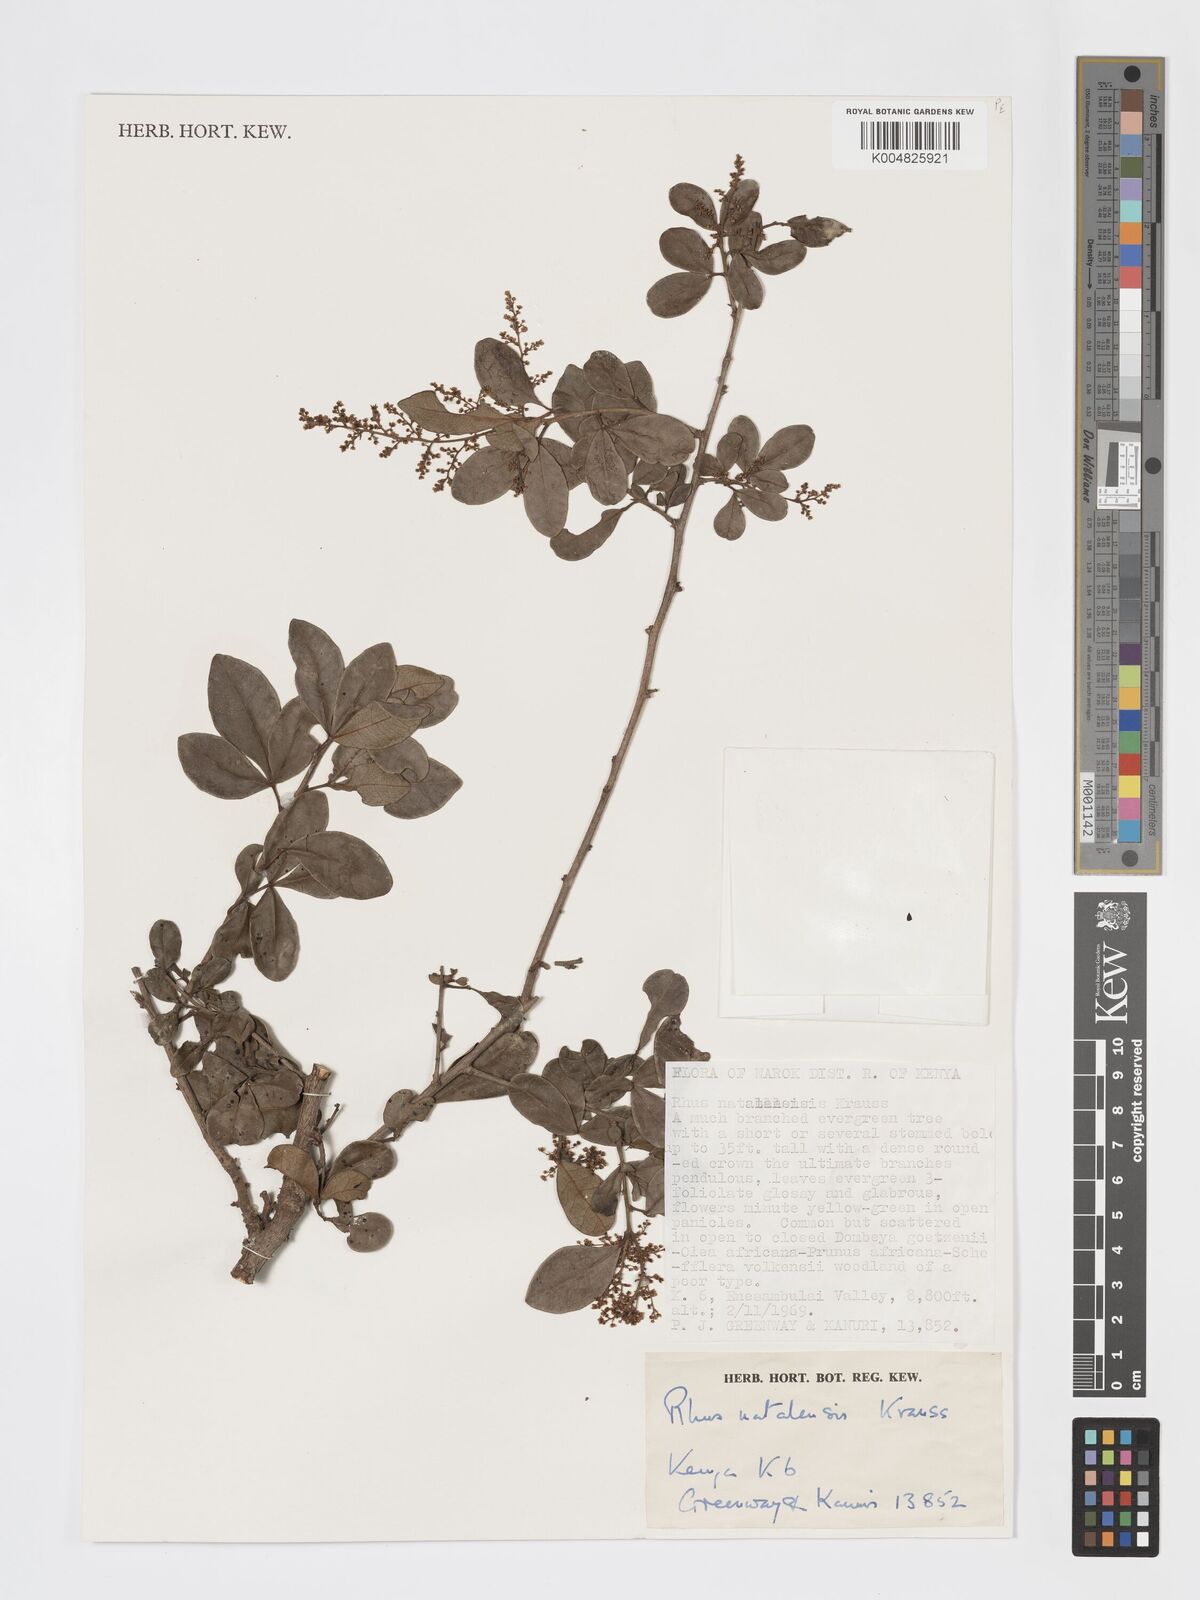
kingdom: Plantae
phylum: Tracheophyta
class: Magnoliopsida
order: Sapindales
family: Anacardiaceae
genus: Searsia
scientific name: Searsia natalensis
